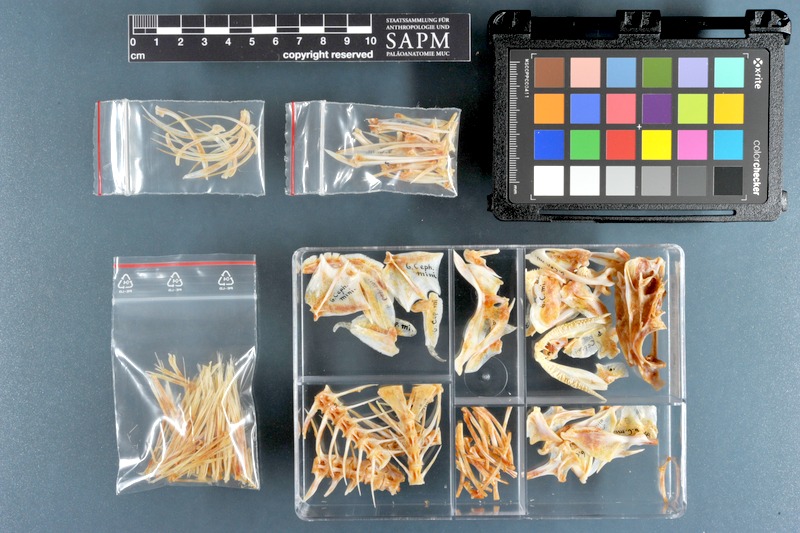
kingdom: Animalia
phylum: Chordata
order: Perciformes
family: Serranidae
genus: Cephalopholis
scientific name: Cephalopholis miniata
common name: Coral hind
